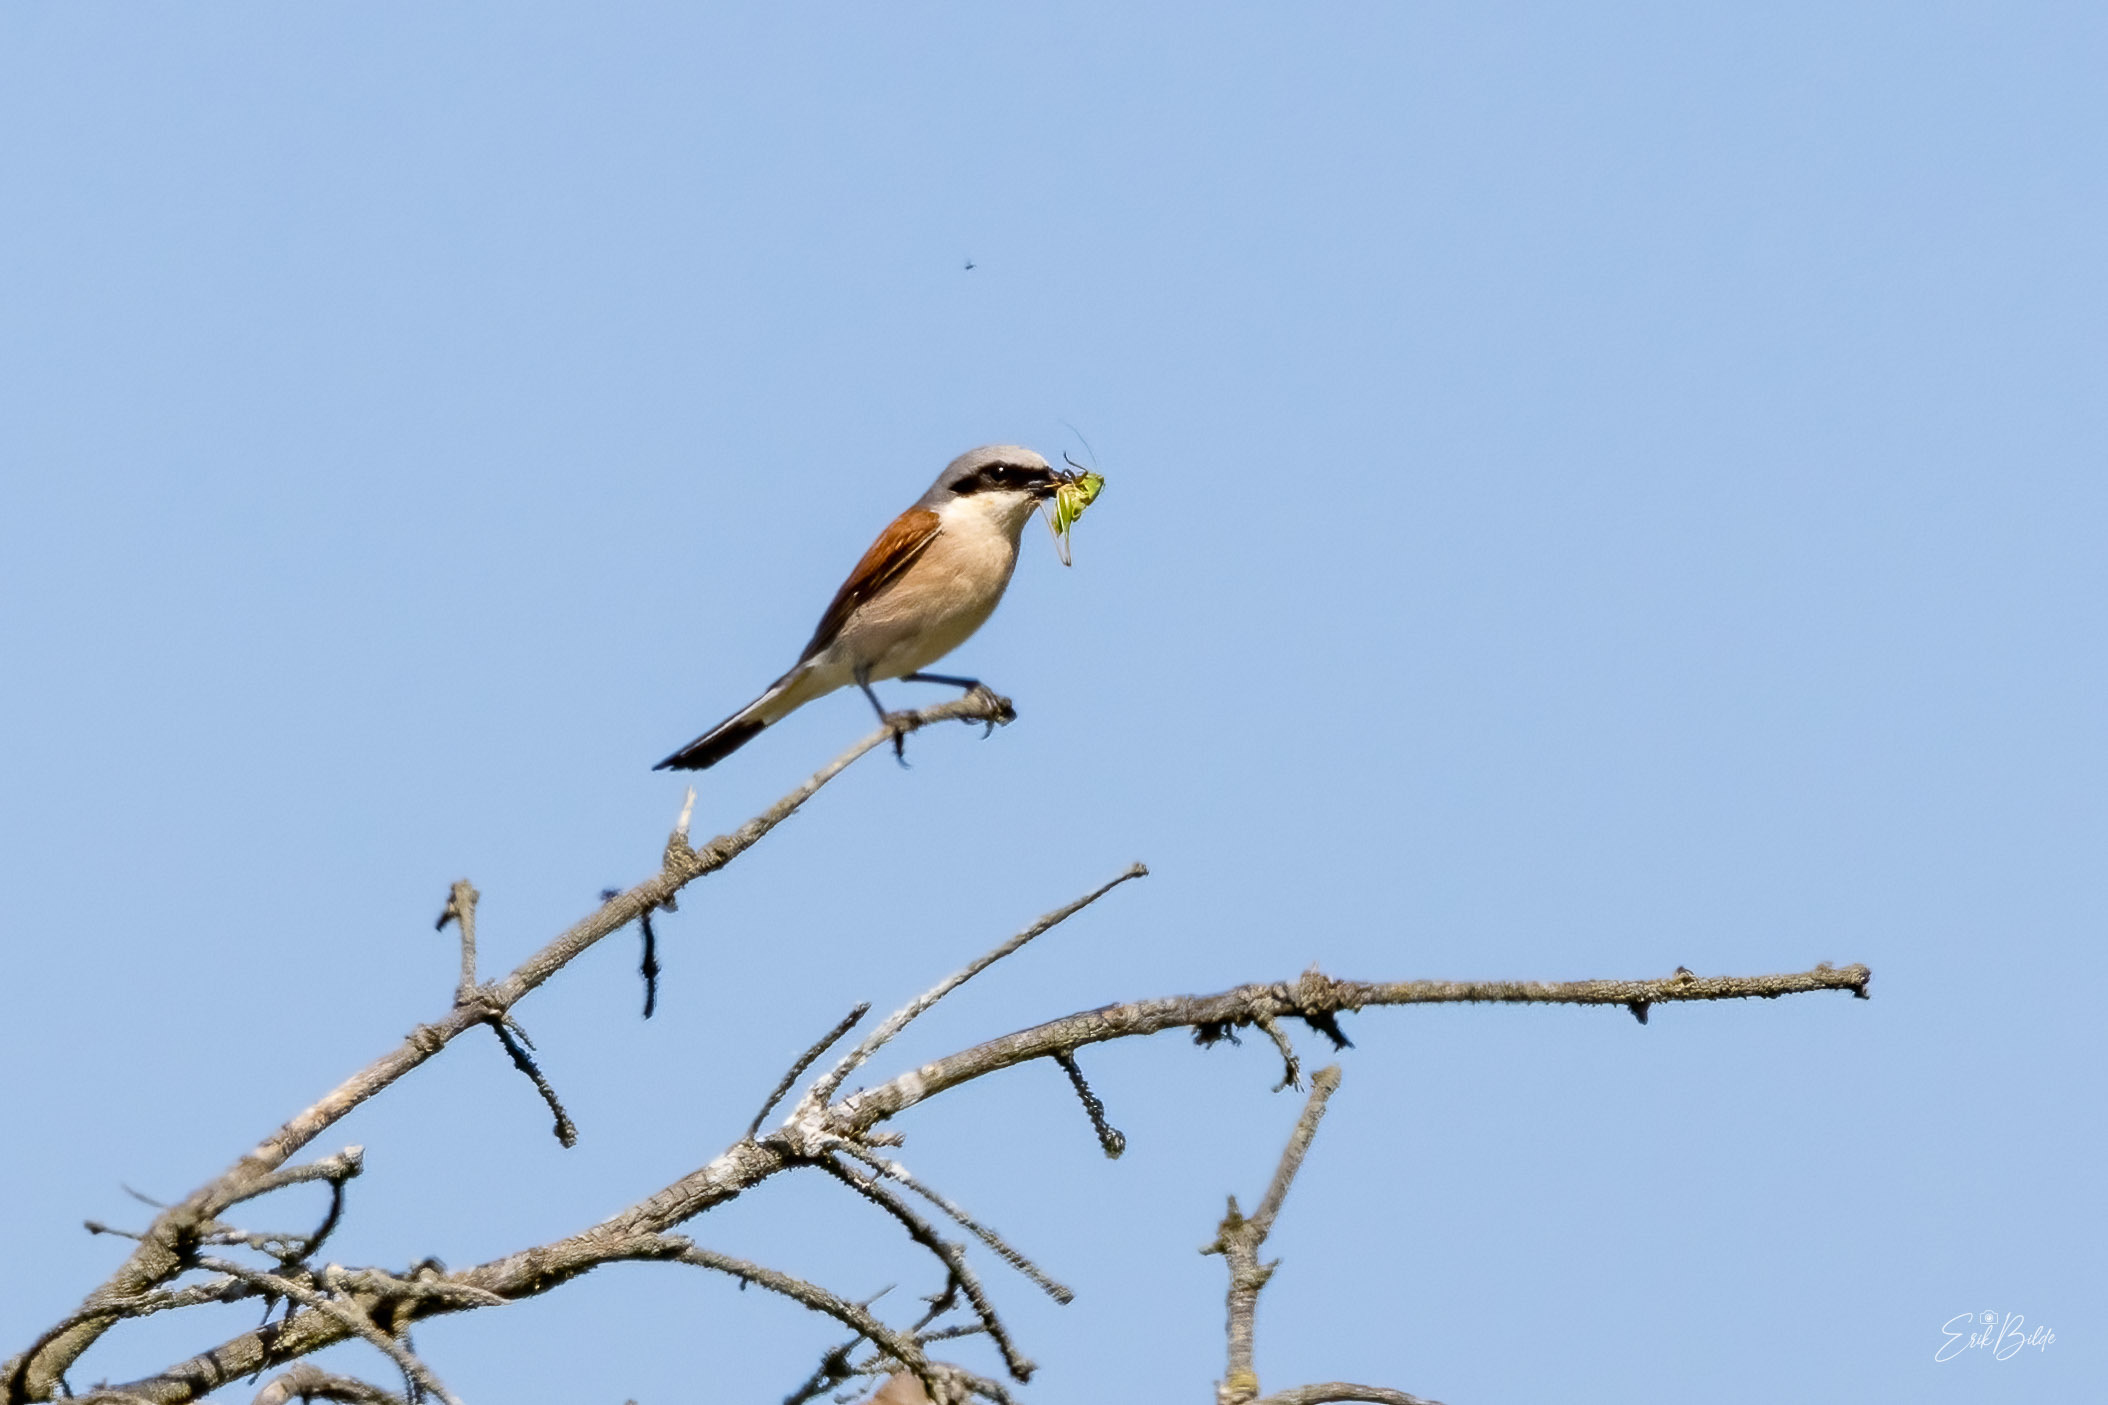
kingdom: Animalia
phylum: Chordata
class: Aves
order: Passeriformes
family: Laniidae
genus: Lanius
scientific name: Lanius collurio
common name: Rødrygget tornskade
